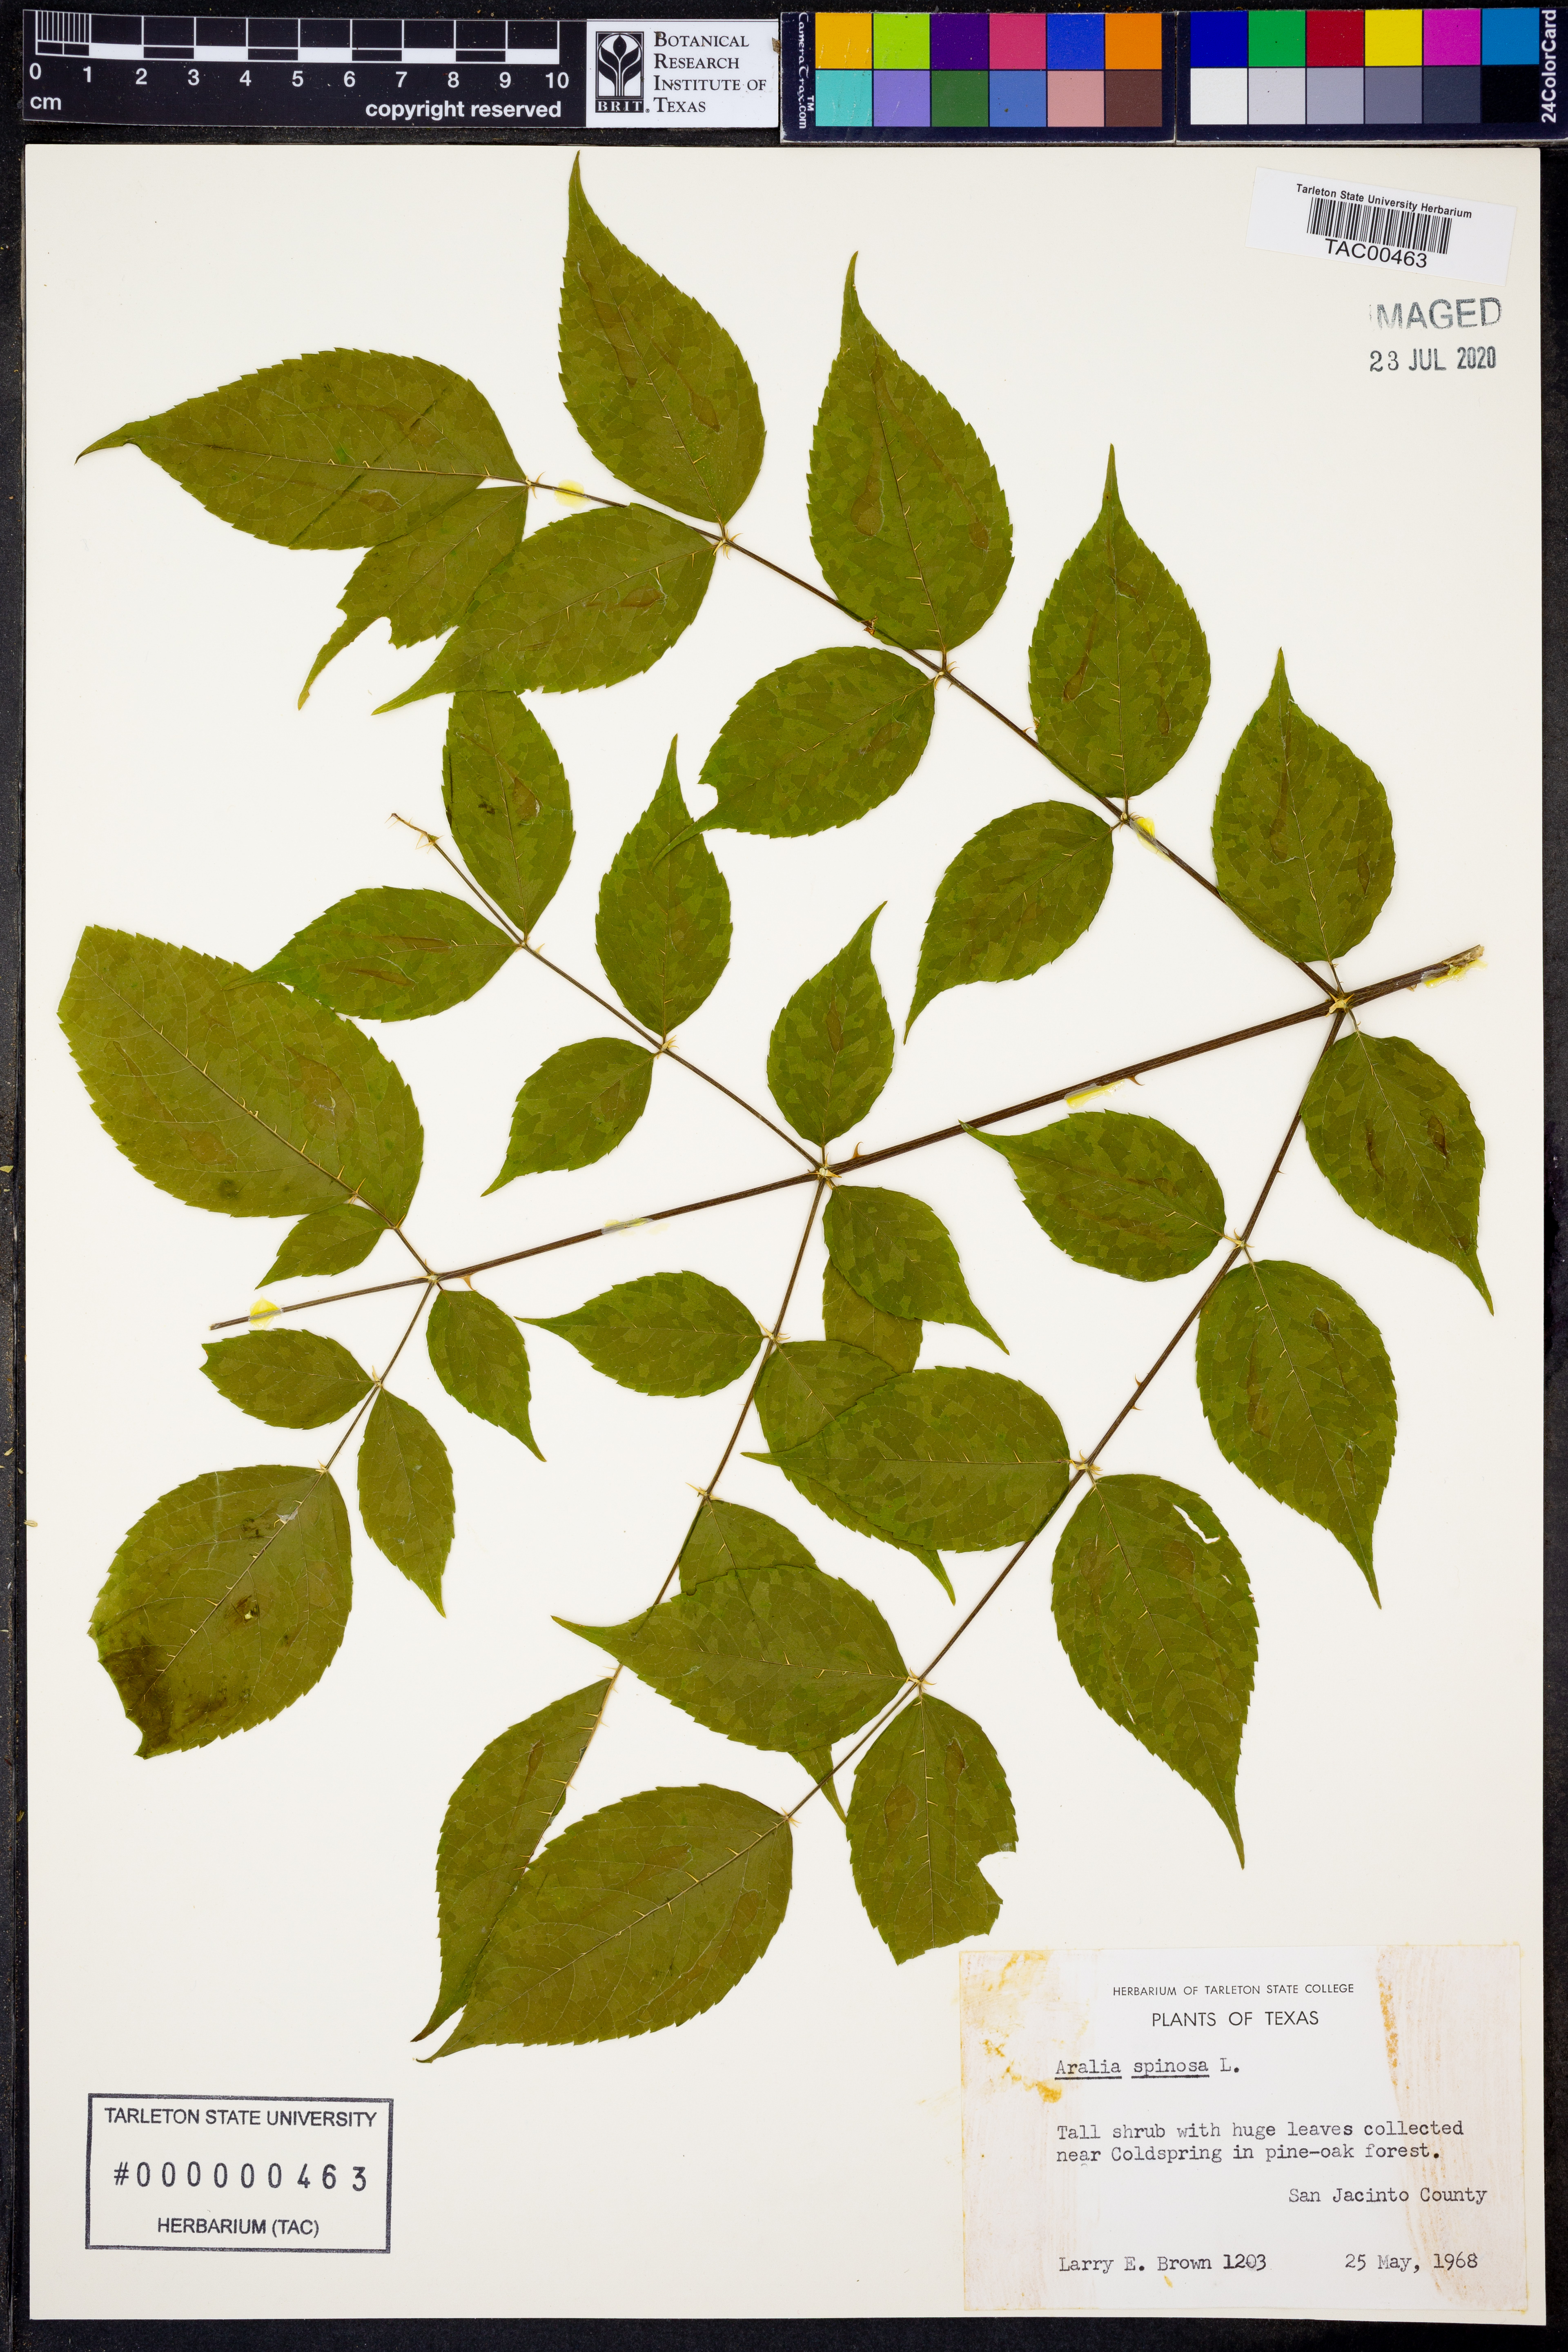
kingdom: Plantae
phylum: Tracheophyta
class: Magnoliopsida
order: Apiales
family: Araliaceae
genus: Aralia
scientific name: Aralia spinosa
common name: Hercules'-club
